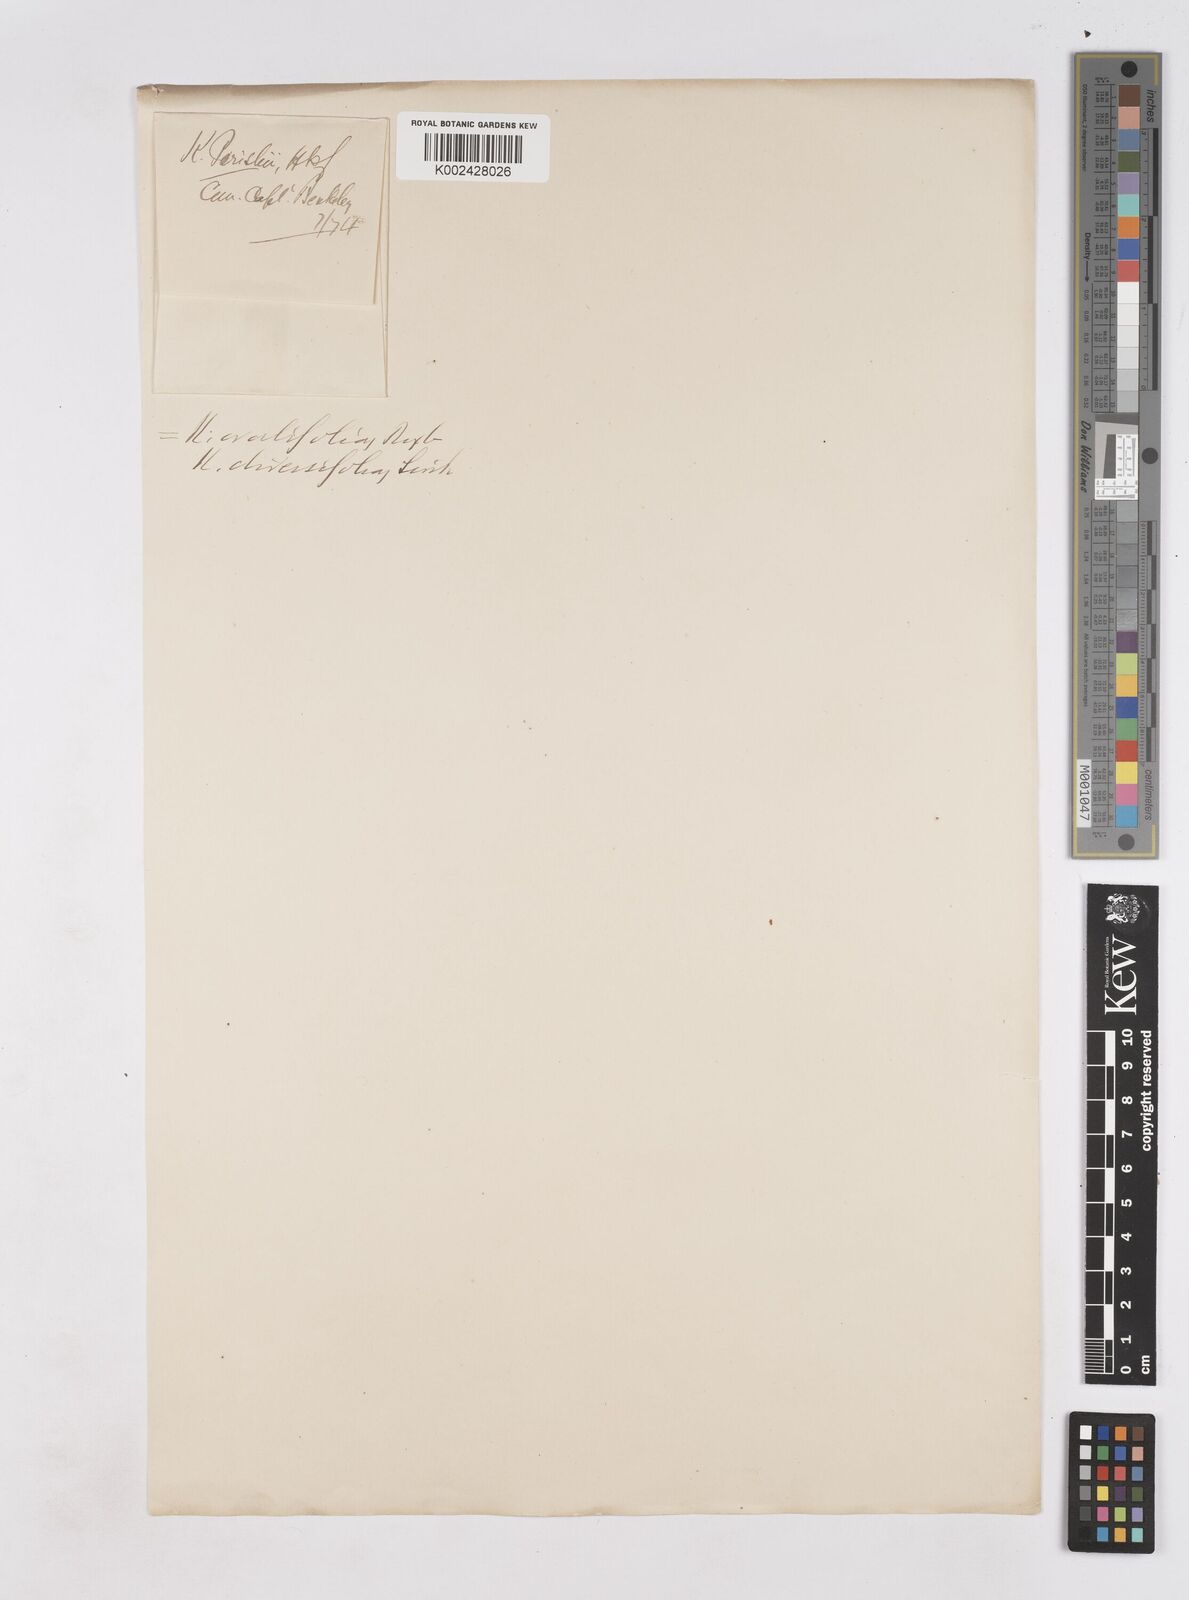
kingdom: Plantae
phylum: Tracheophyta
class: Liliopsida
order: Zingiberales
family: Zingiberaceae
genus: Kaempferia
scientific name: Kaempferia ovalifolia
